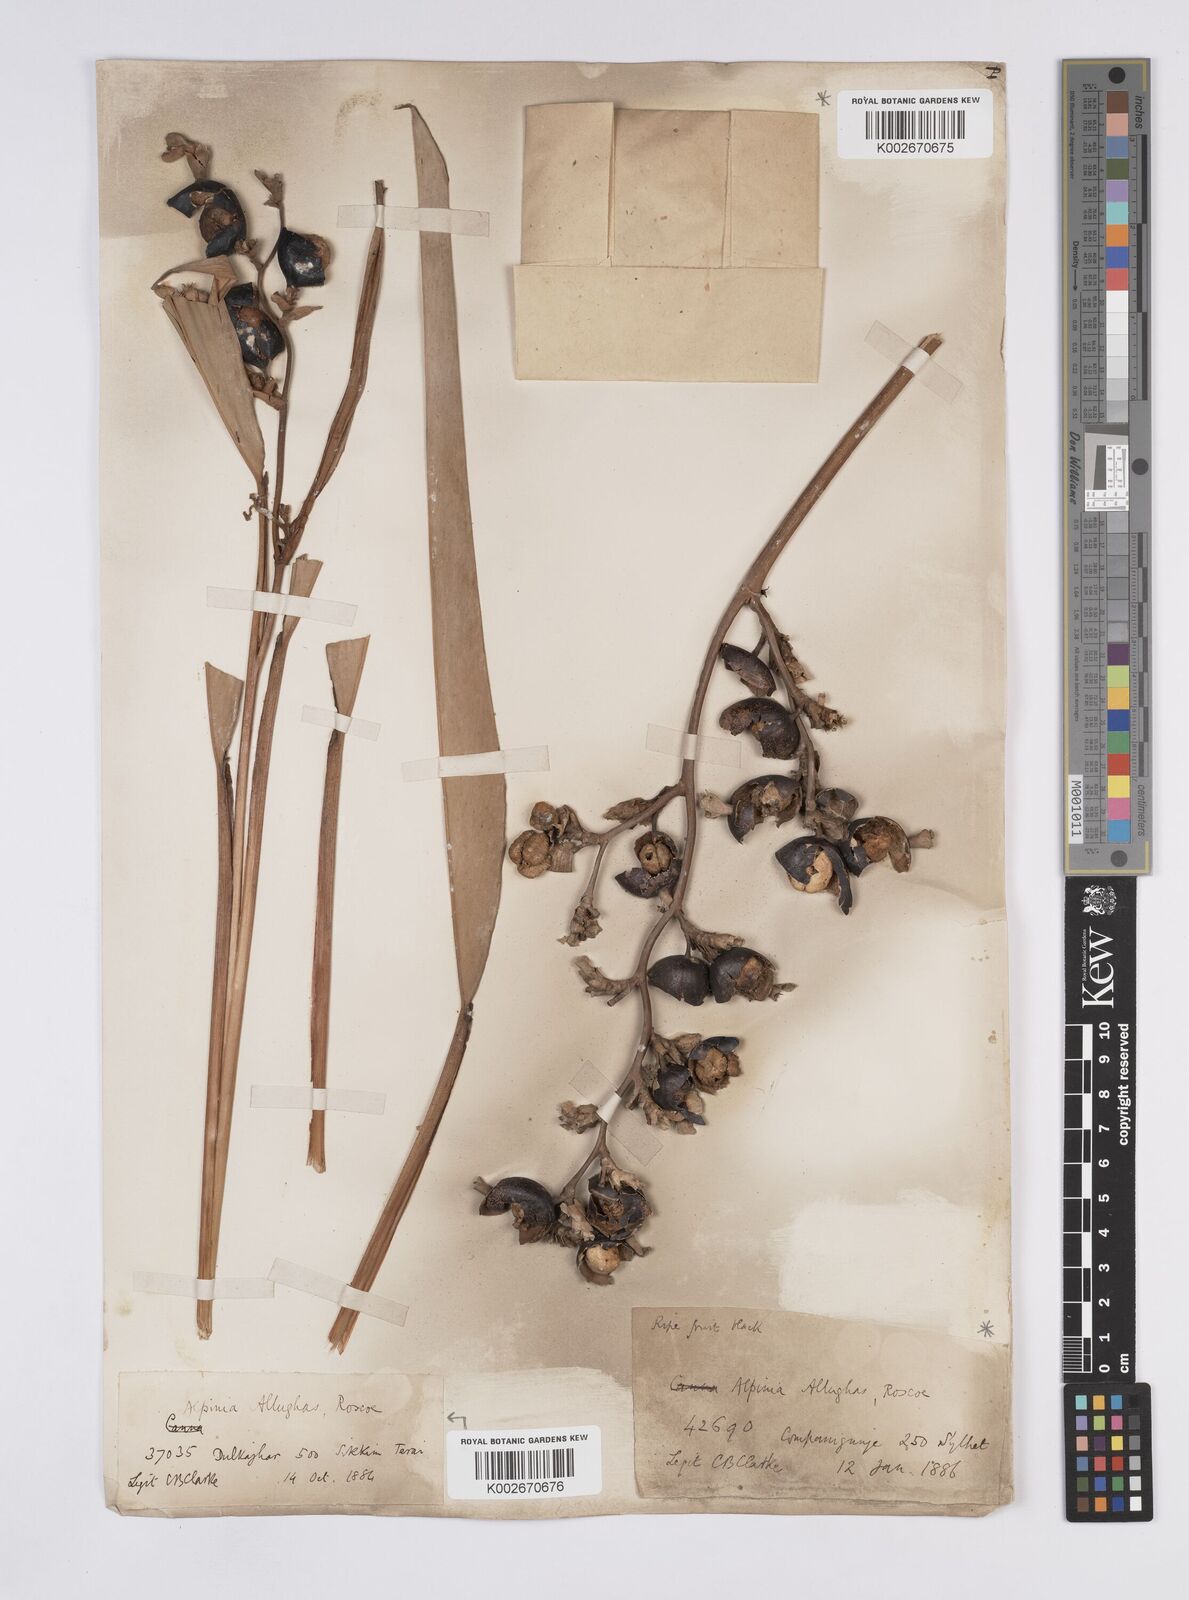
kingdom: Plantae
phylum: Tracheophyta
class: Liliopsida
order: Zingiberales
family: Zingiberaceae
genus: Alpinia
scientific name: Alpinia nigra
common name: Black fruited galanga
